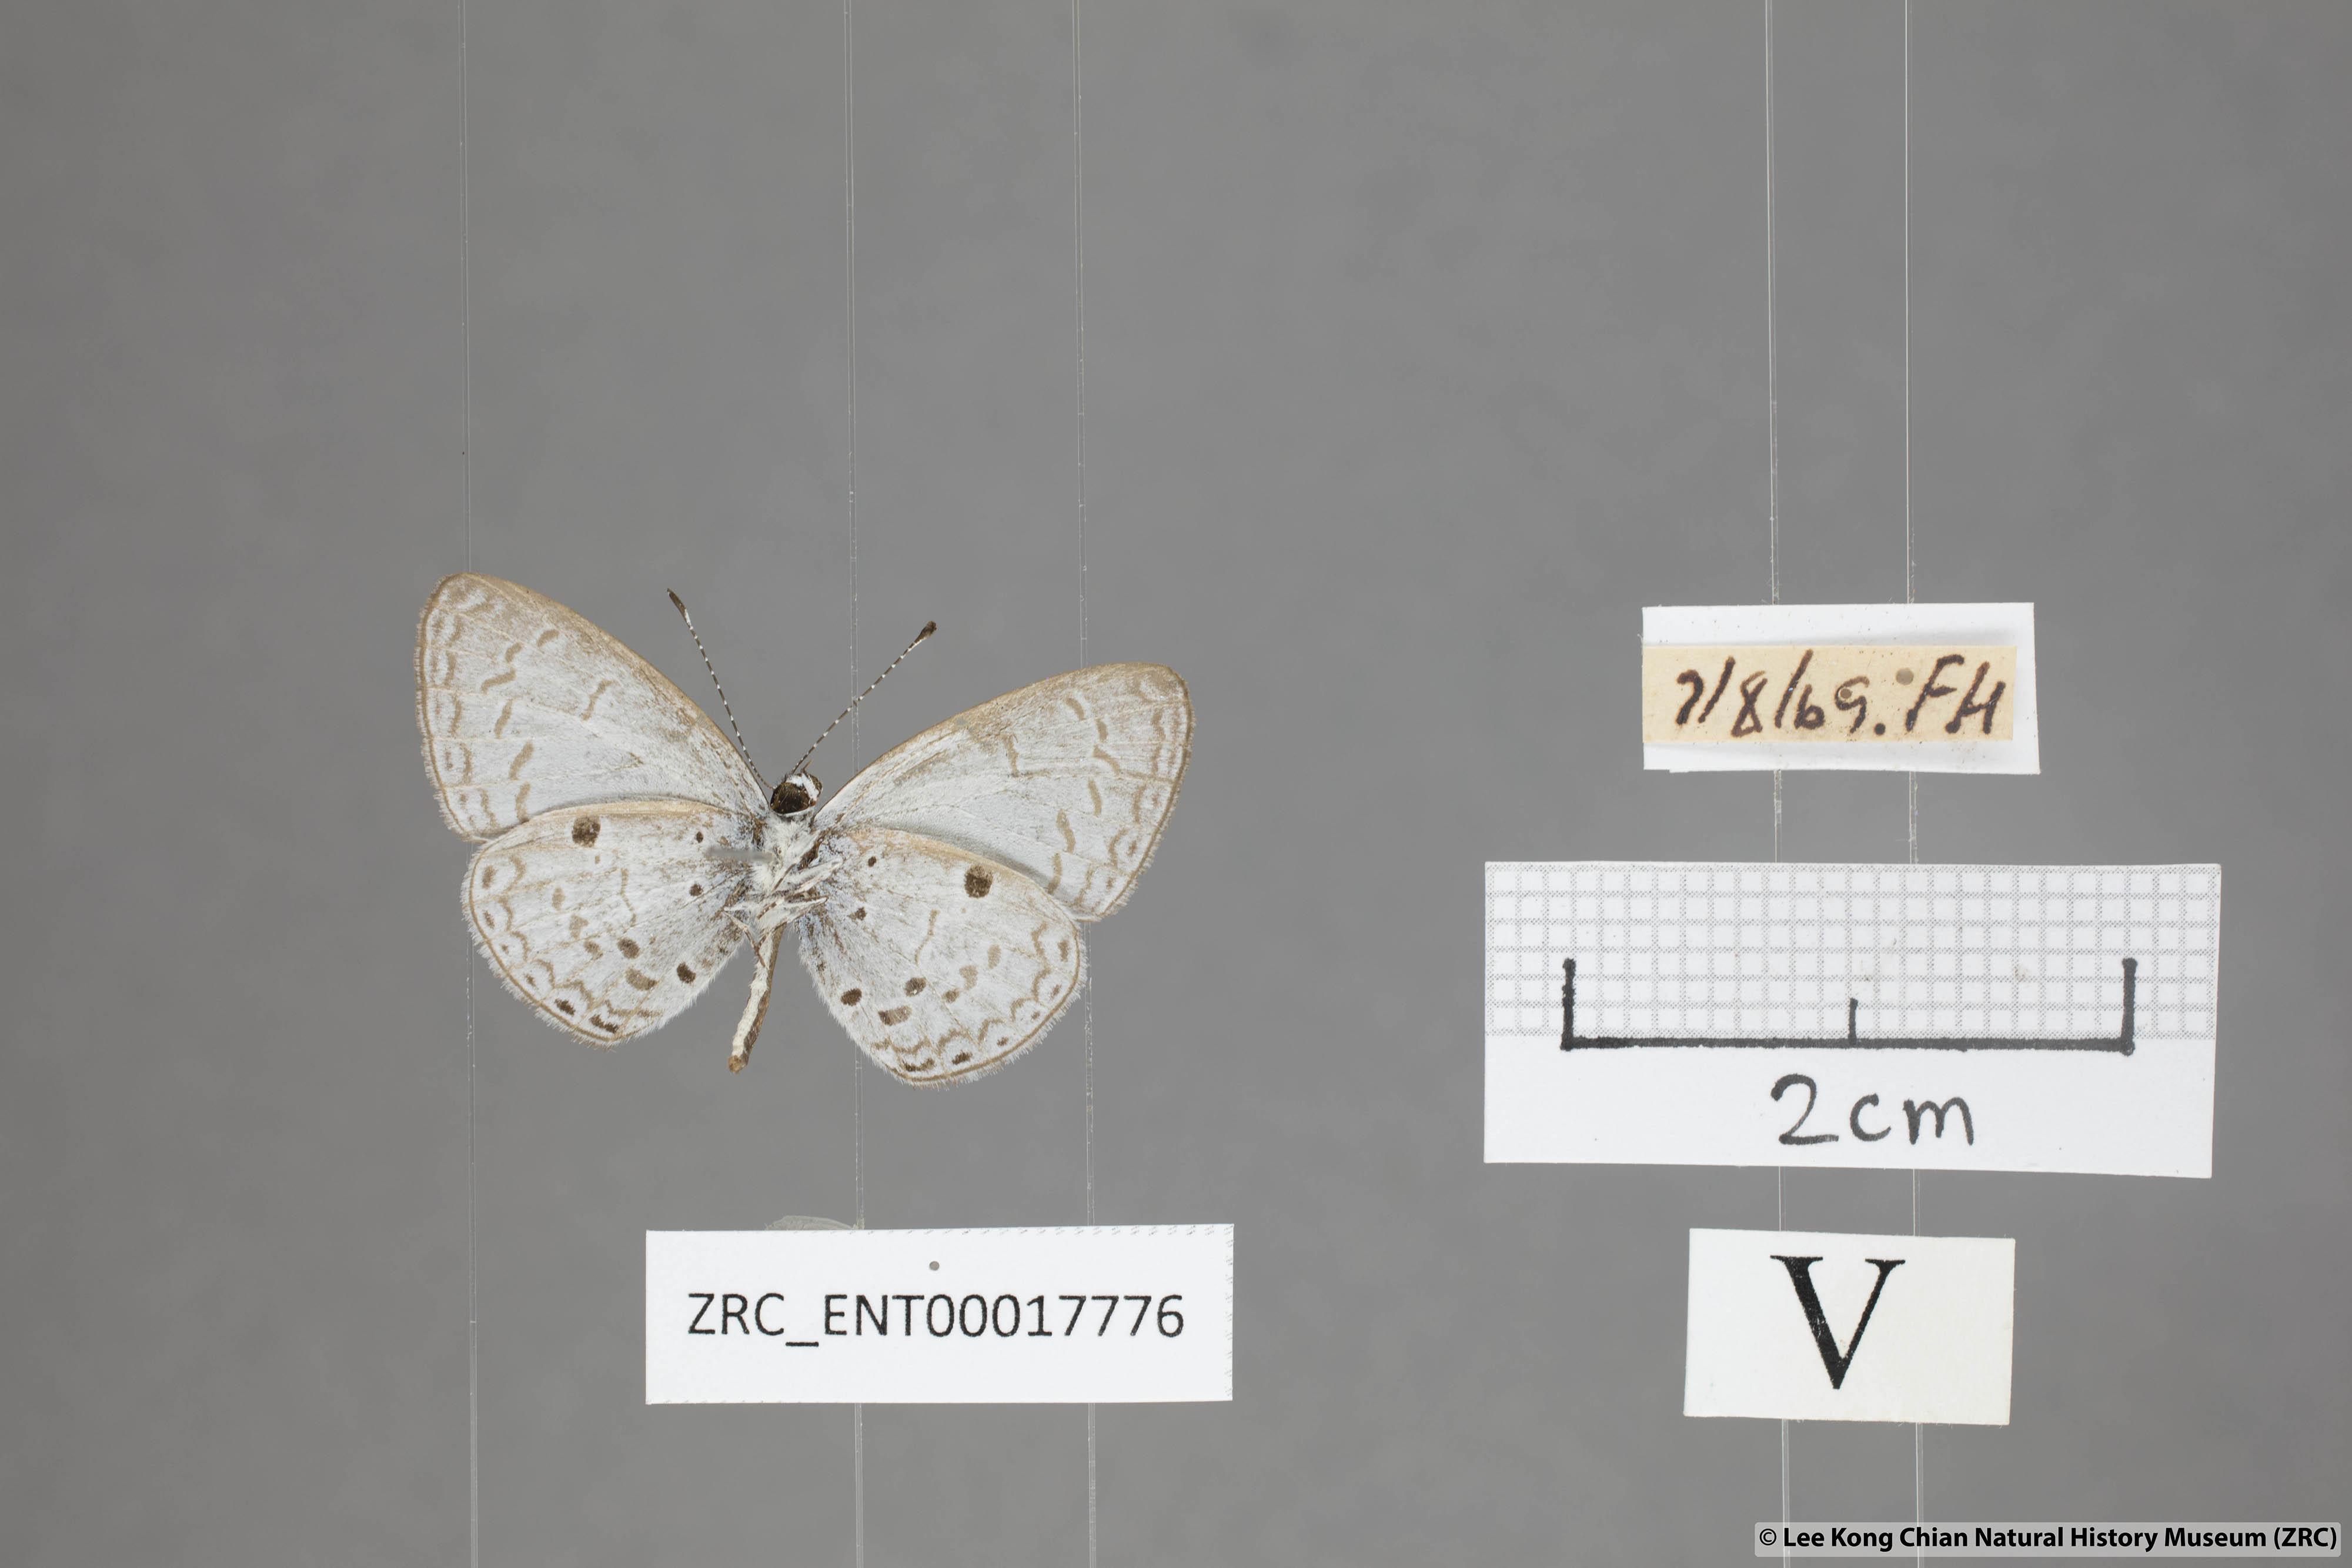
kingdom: Animalia
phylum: Arthropoda
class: Insecta
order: Lepidoptera
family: Lycaenidae
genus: Callenya
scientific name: Callenya lenya
